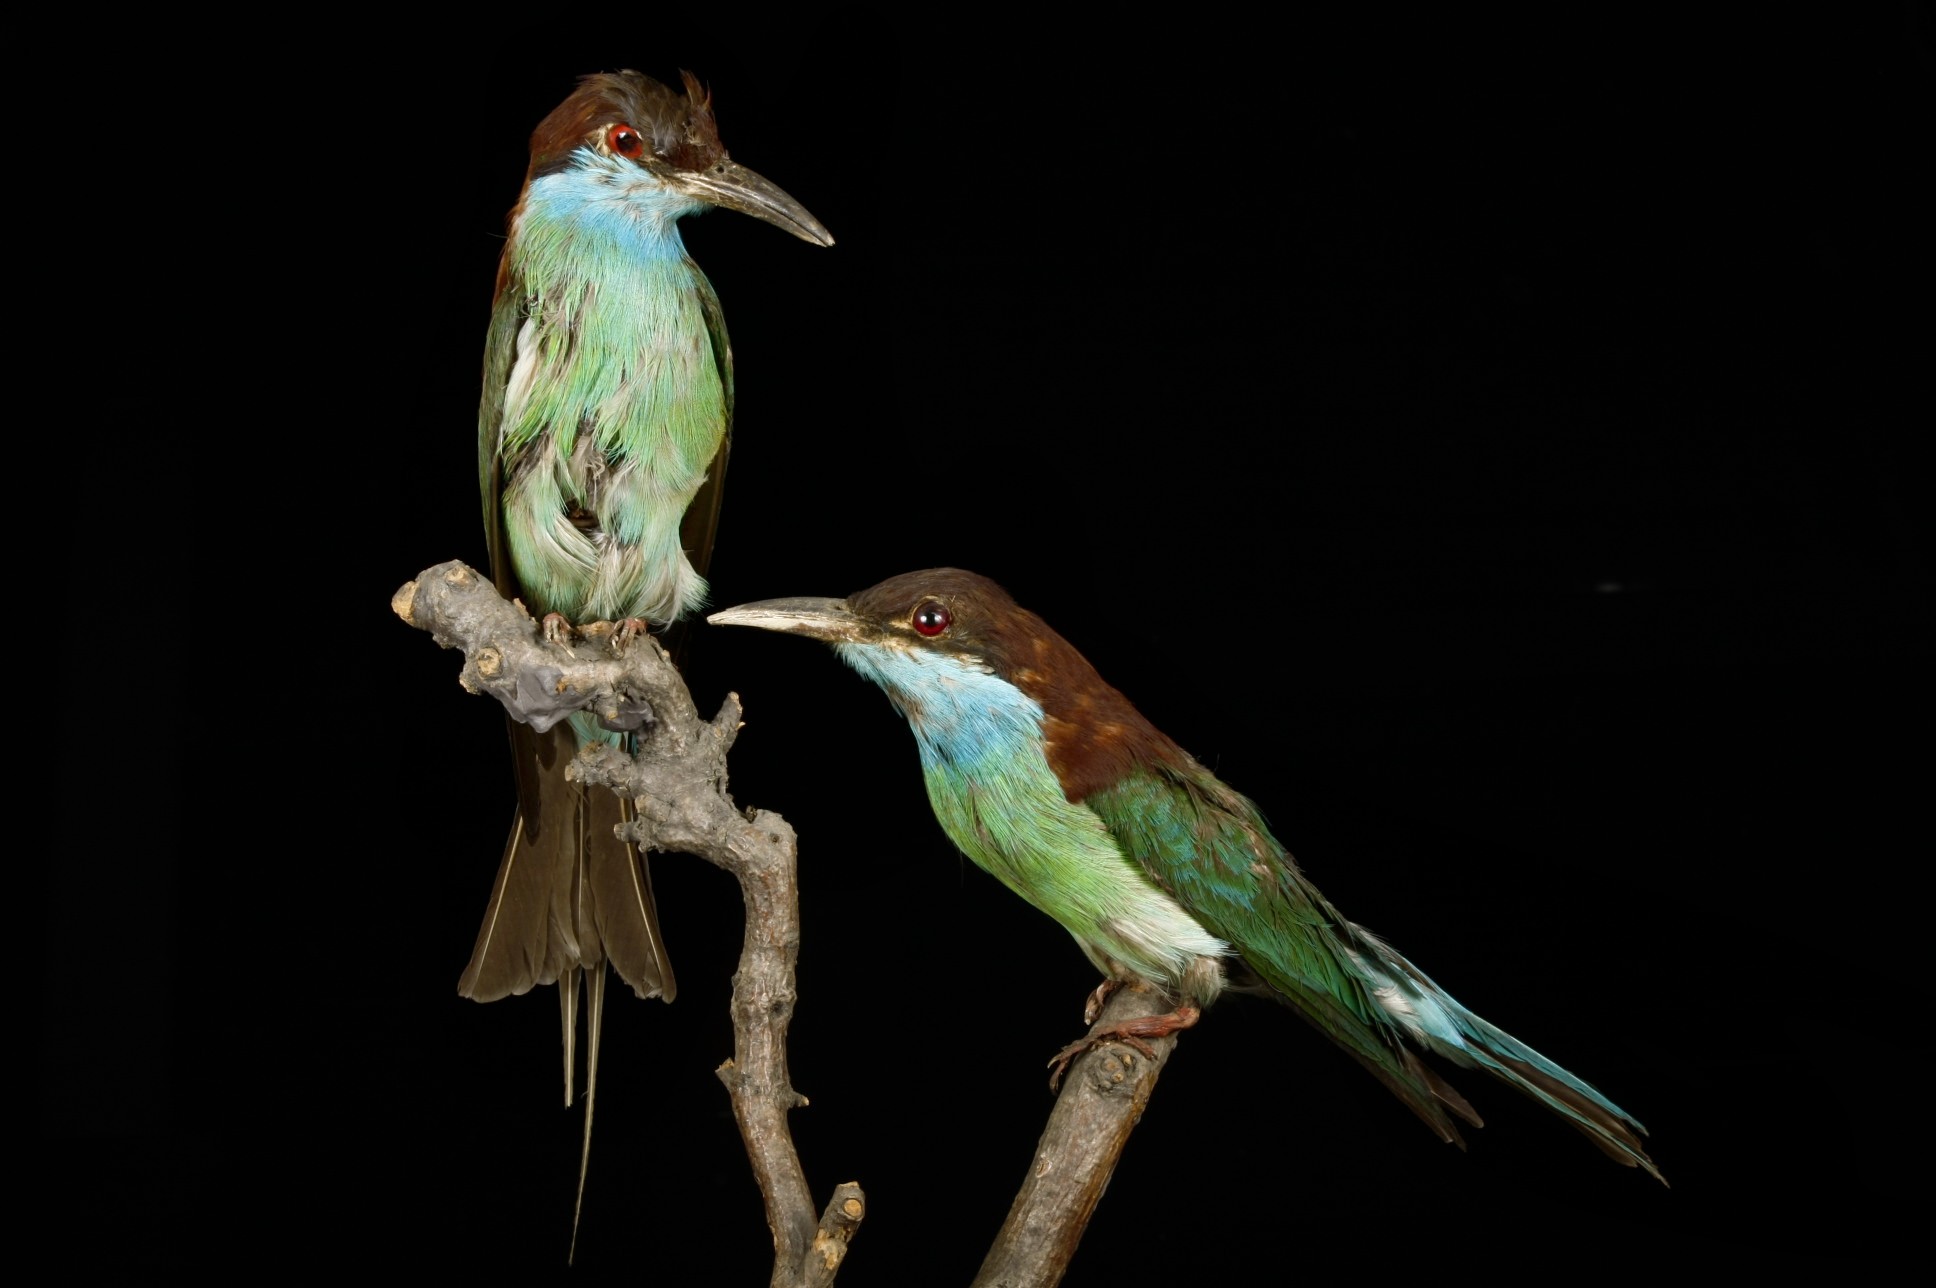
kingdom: Animalia
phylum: Chordata
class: Aves
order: Coraciiformes
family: Meropidae
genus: Merops
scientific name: Merops viridis
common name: Blue-throated bee-eater
